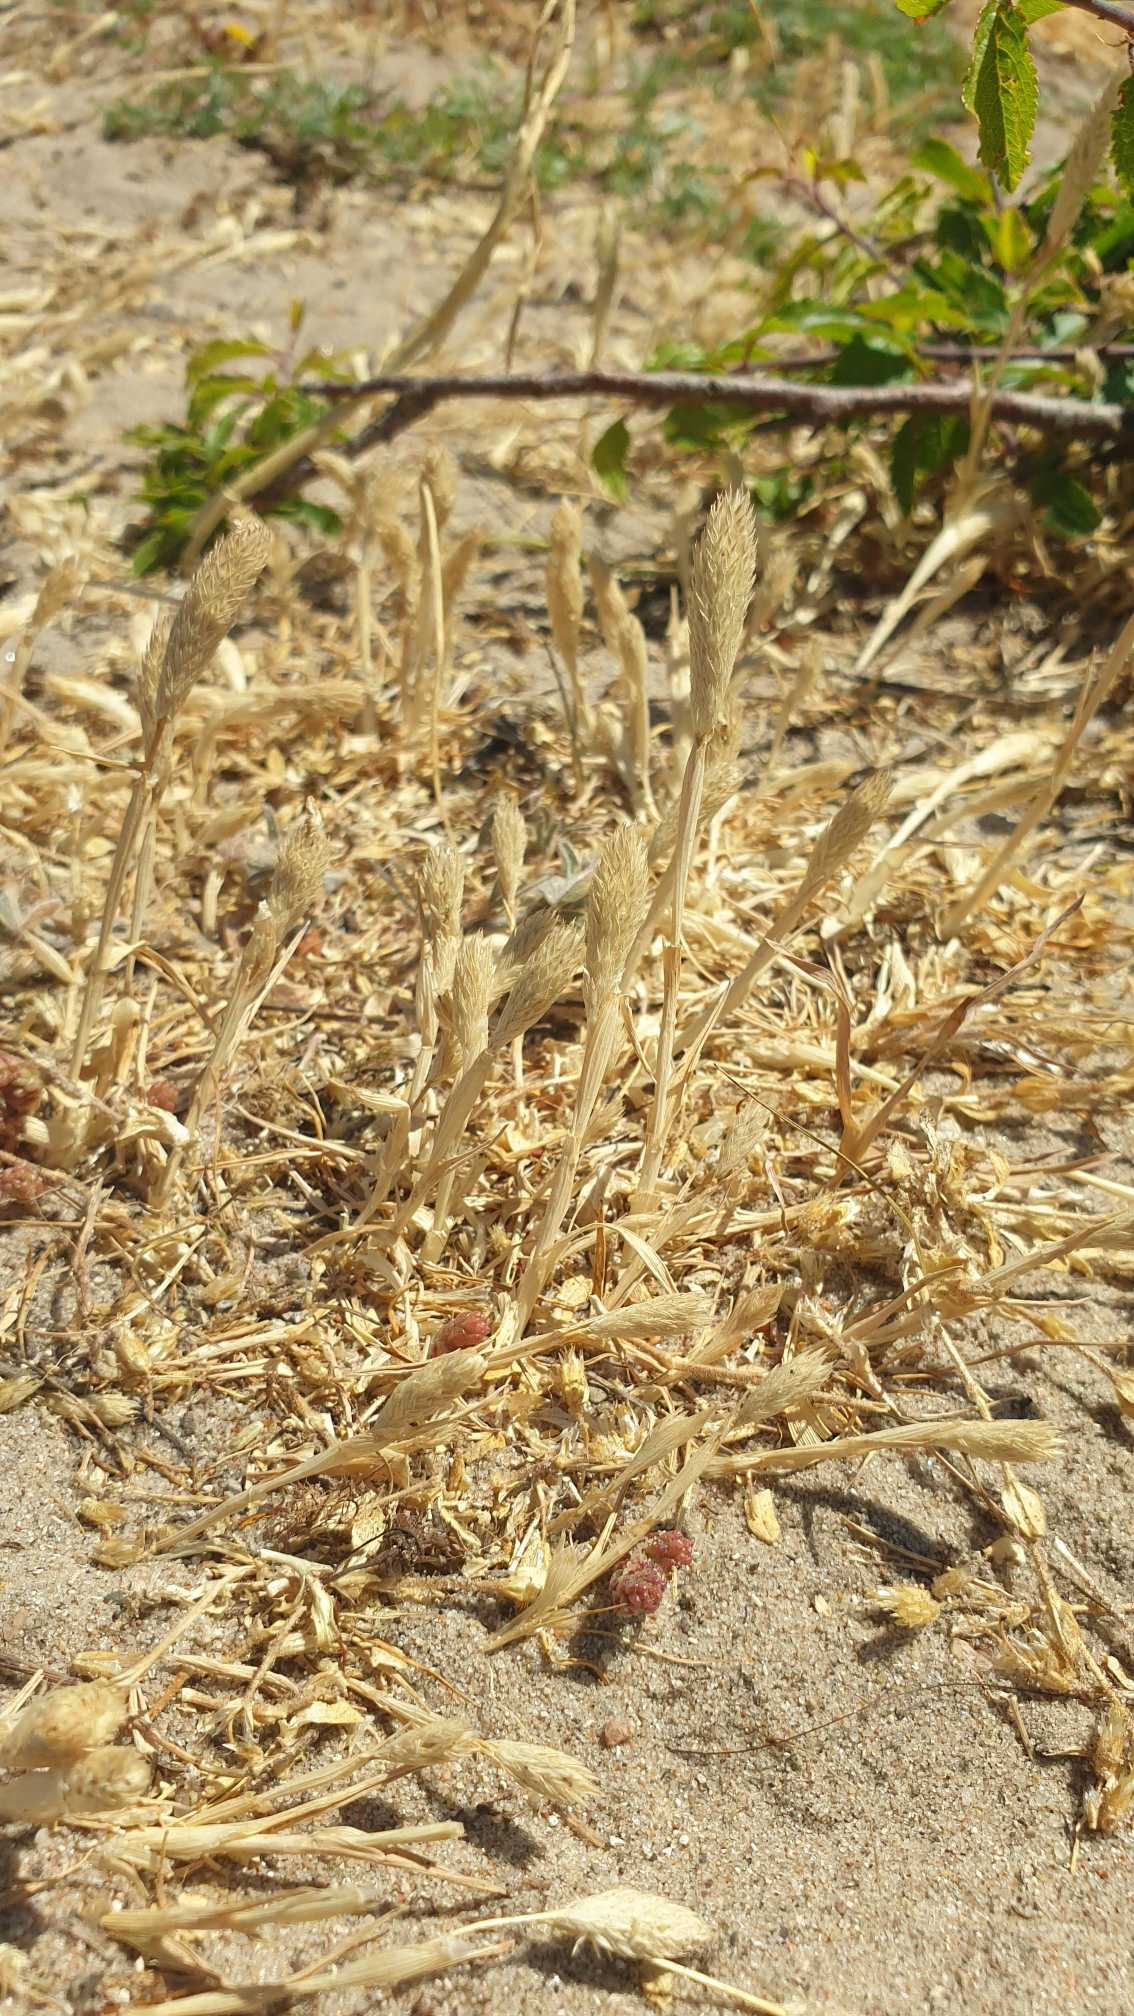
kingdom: Plantae
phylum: Tracheophyta
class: Liliopsida
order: Poales
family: Poaceae
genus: Phleum
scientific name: Phleum arenarium
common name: Sand-rottehale
